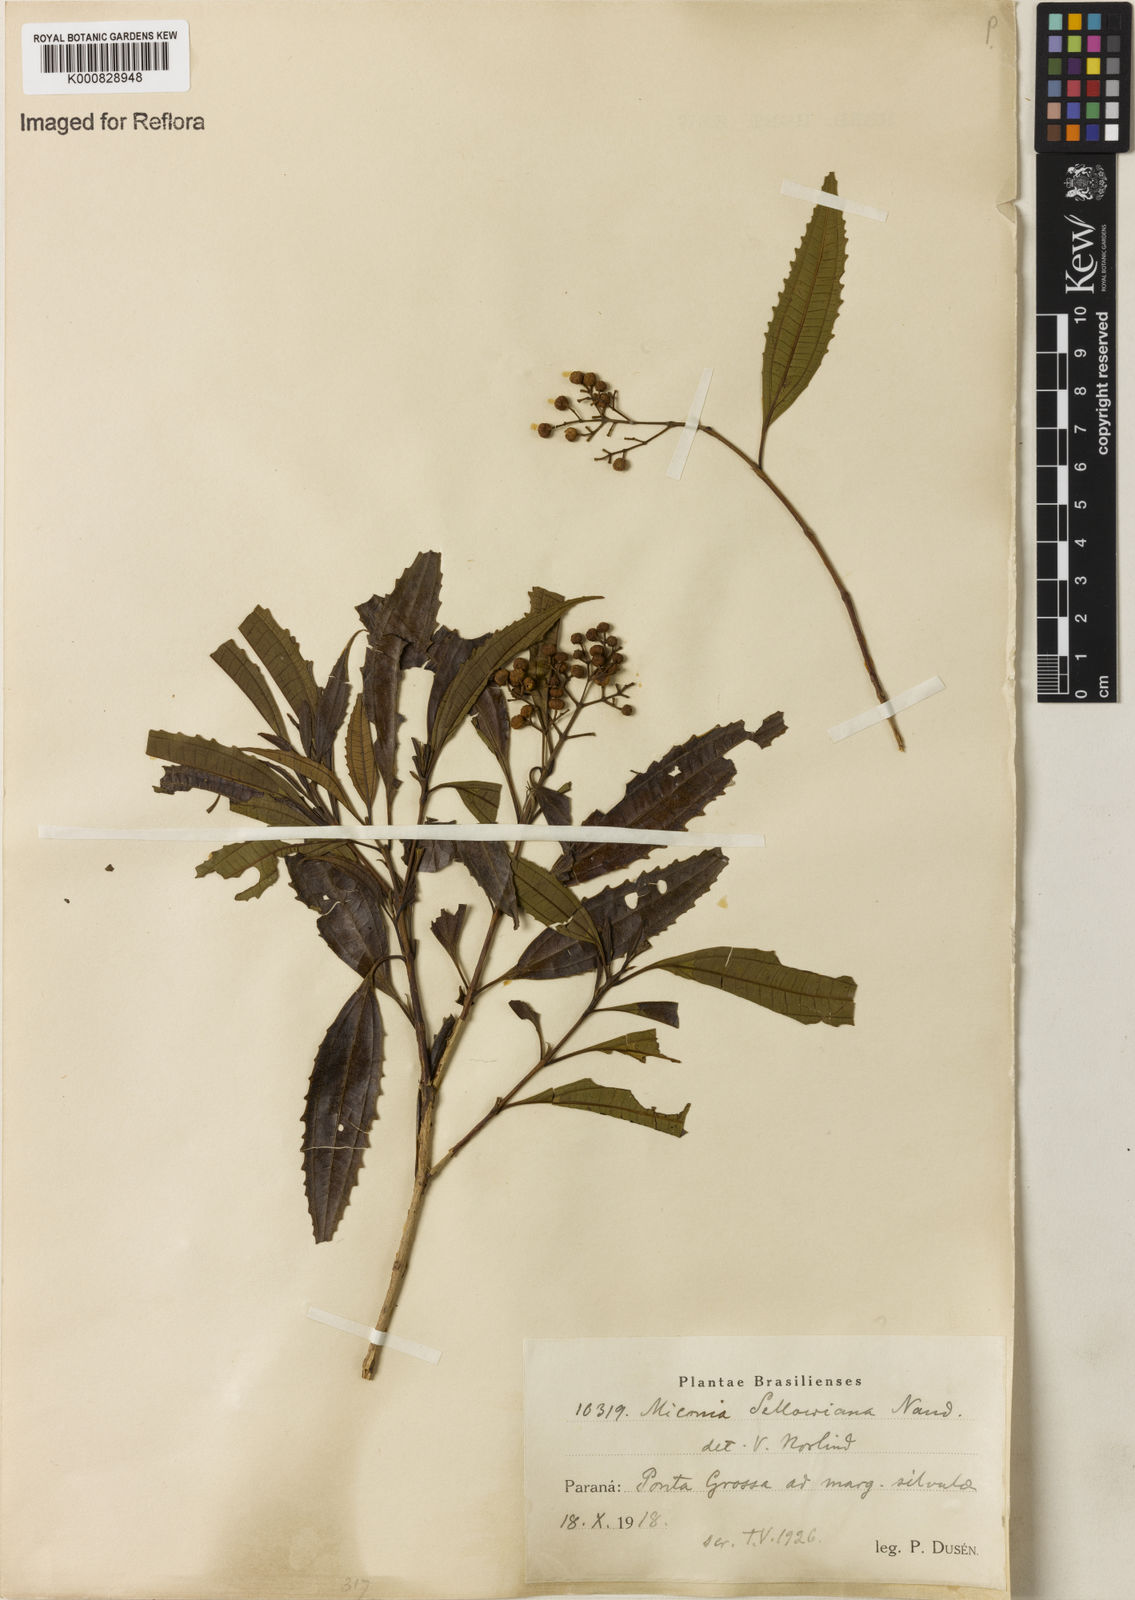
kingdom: Plantae
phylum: Tracheophyta
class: Magnoliopsida
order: Myrtales
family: Melastomataceae
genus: Miconia
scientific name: Miconia sellowiana
